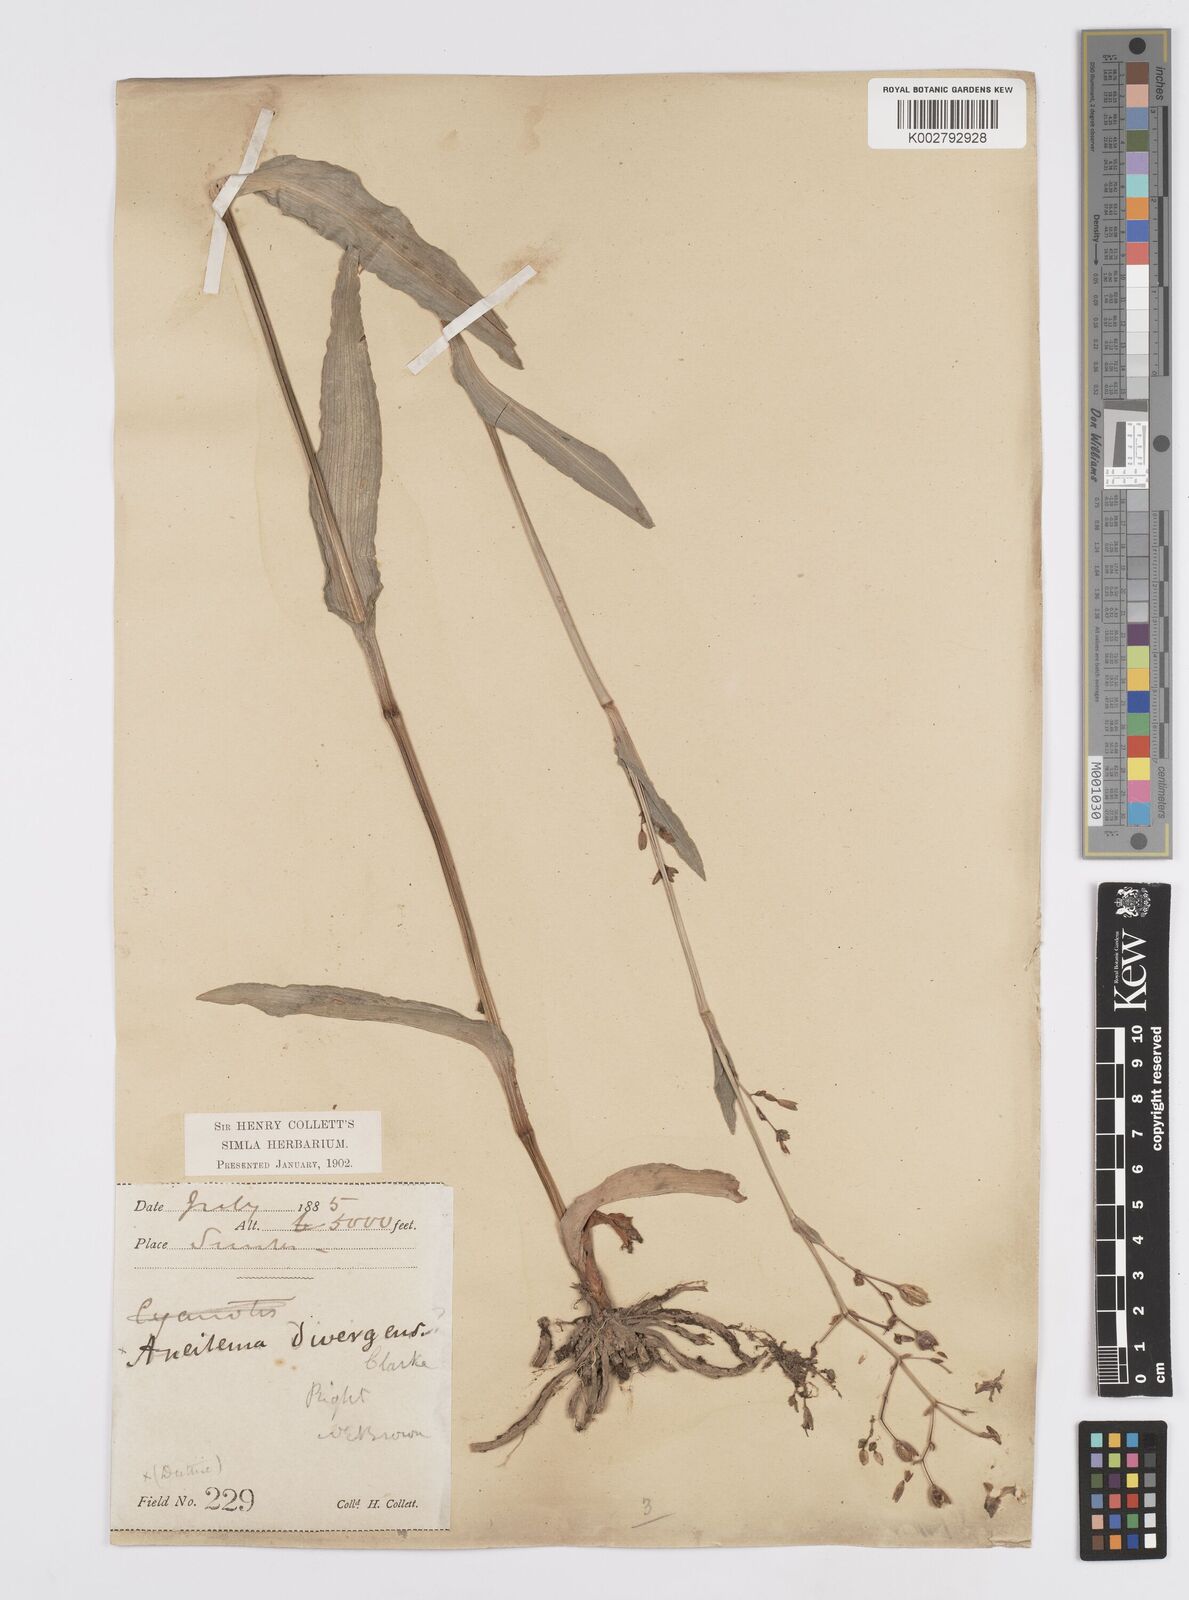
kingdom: Plantae
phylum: Tracheophyta
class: Liliopsida
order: Commelinales
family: Commelinaceae
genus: Murdannia
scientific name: Murdannia divergens
